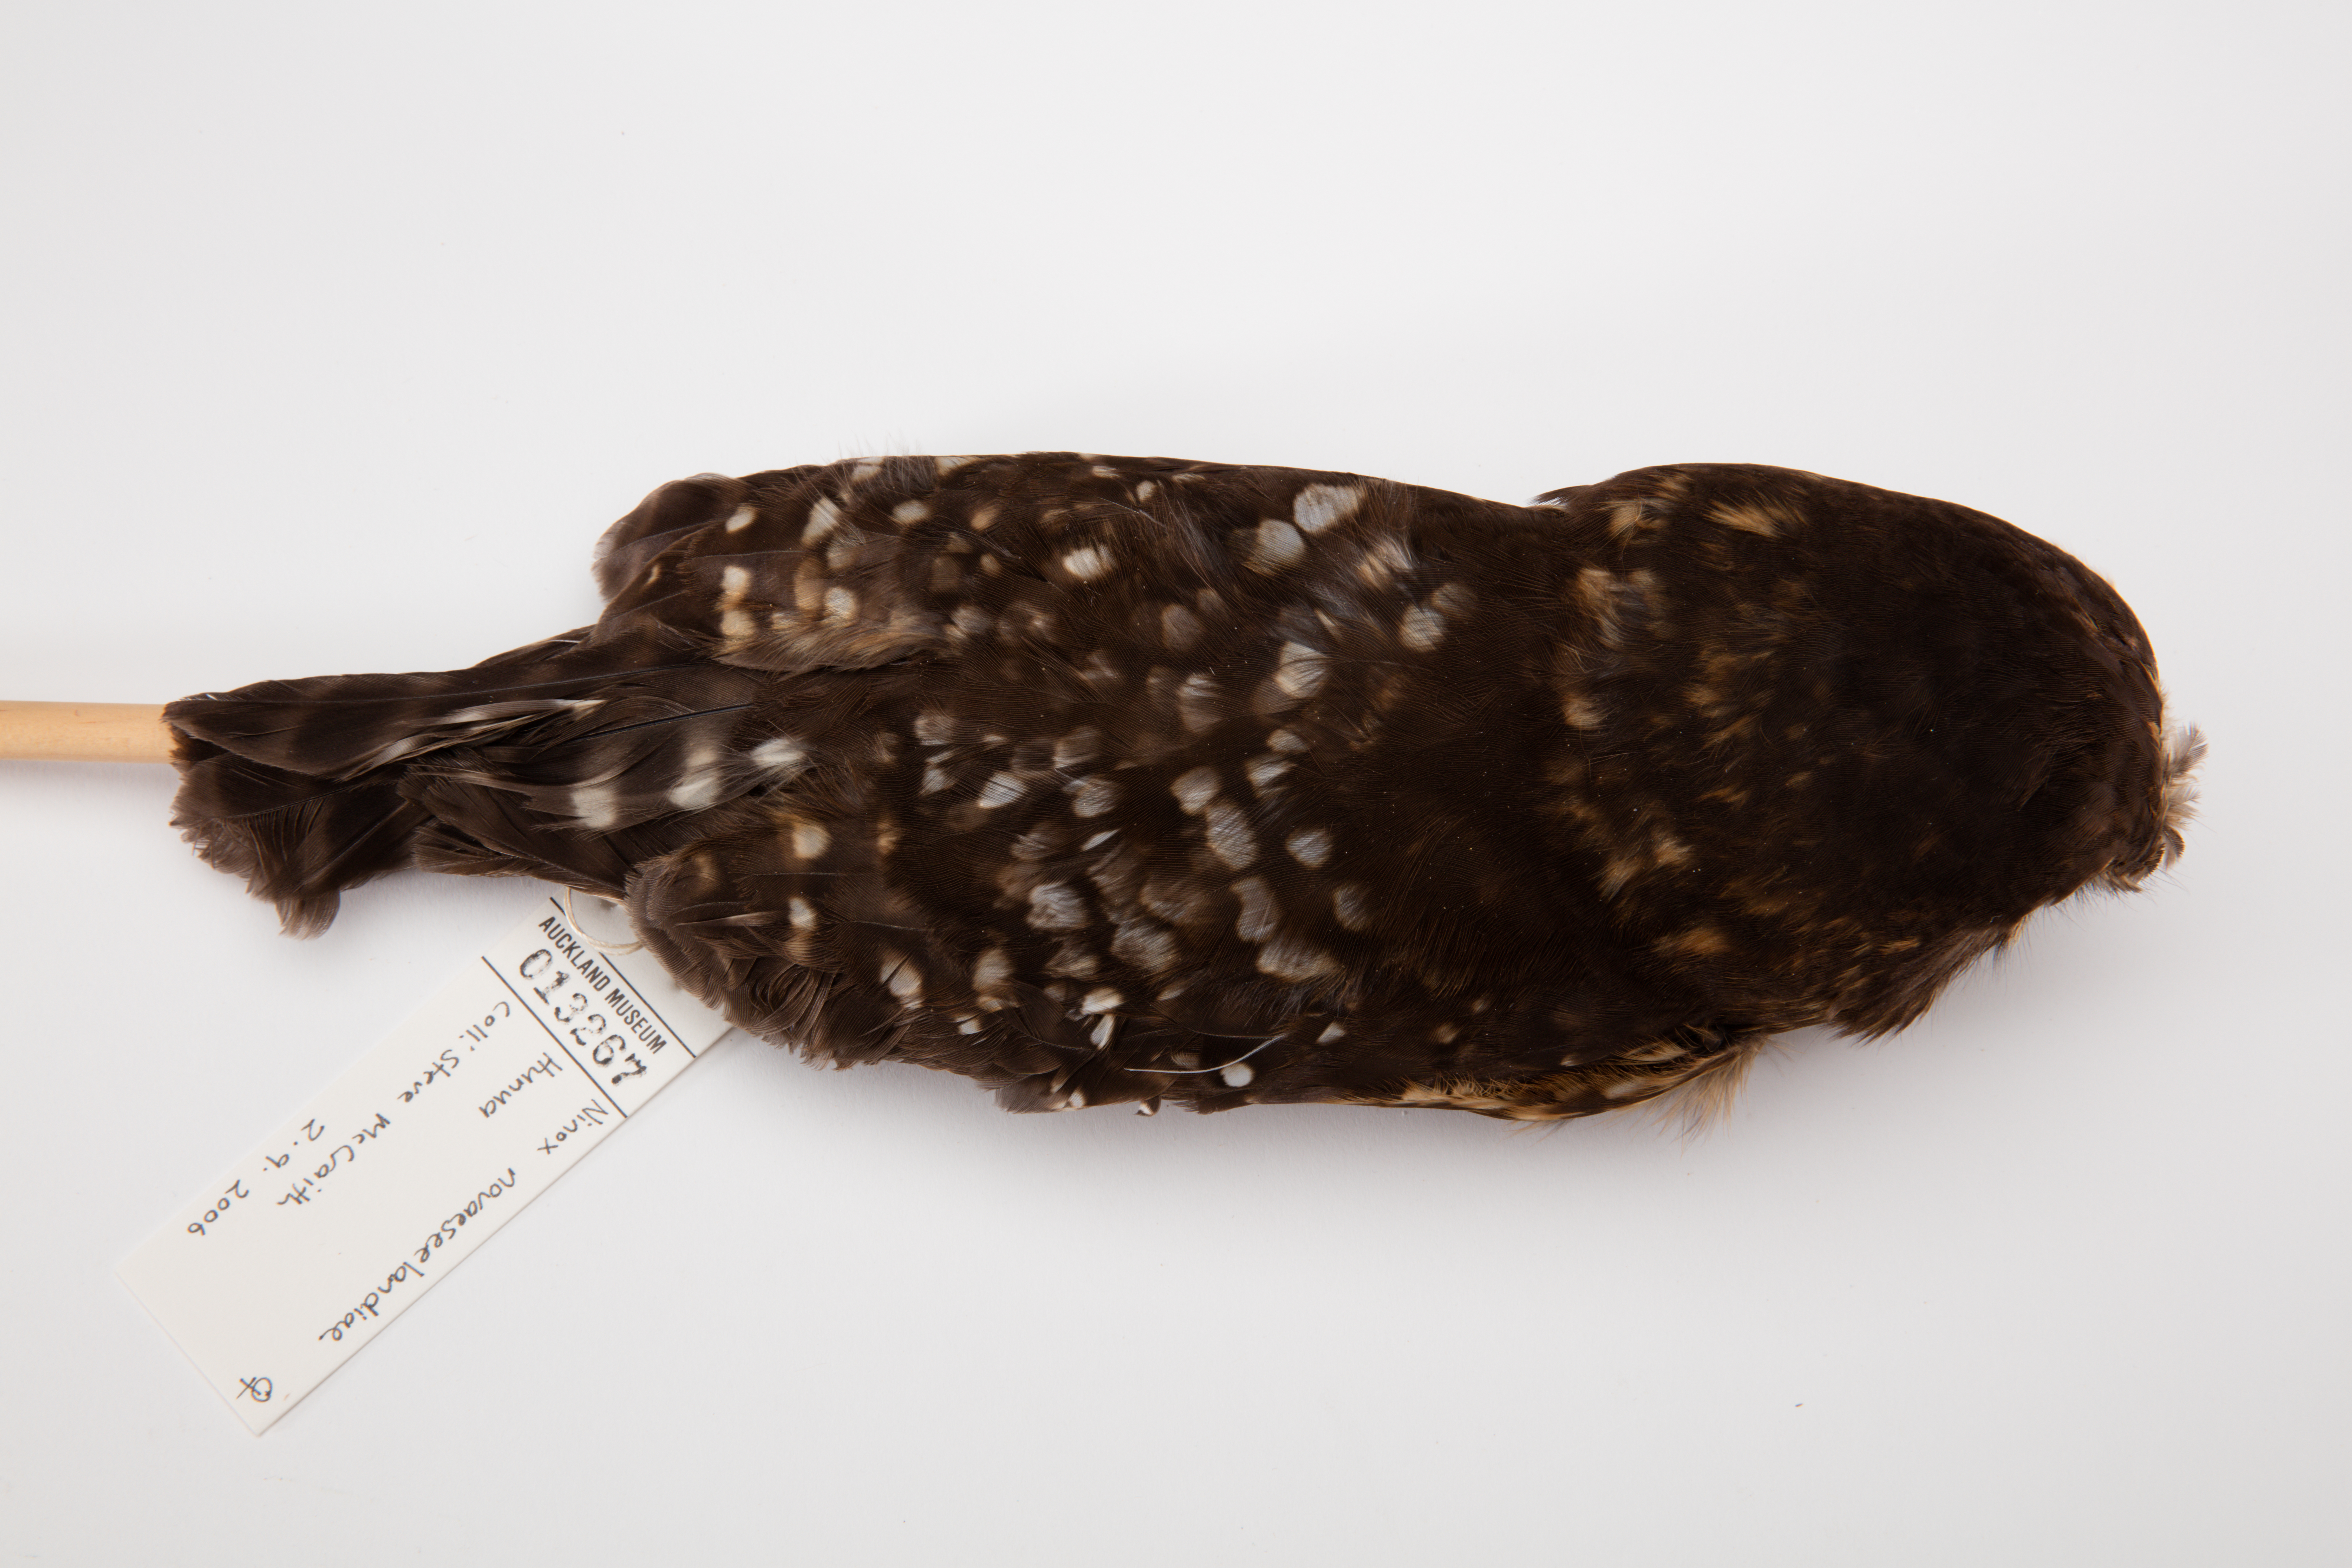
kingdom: Animalia
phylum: Chordata
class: Aves
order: Strigiformes
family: Strigidae
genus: Ninox
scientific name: Ninox novaeseelandiae
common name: Morepork
